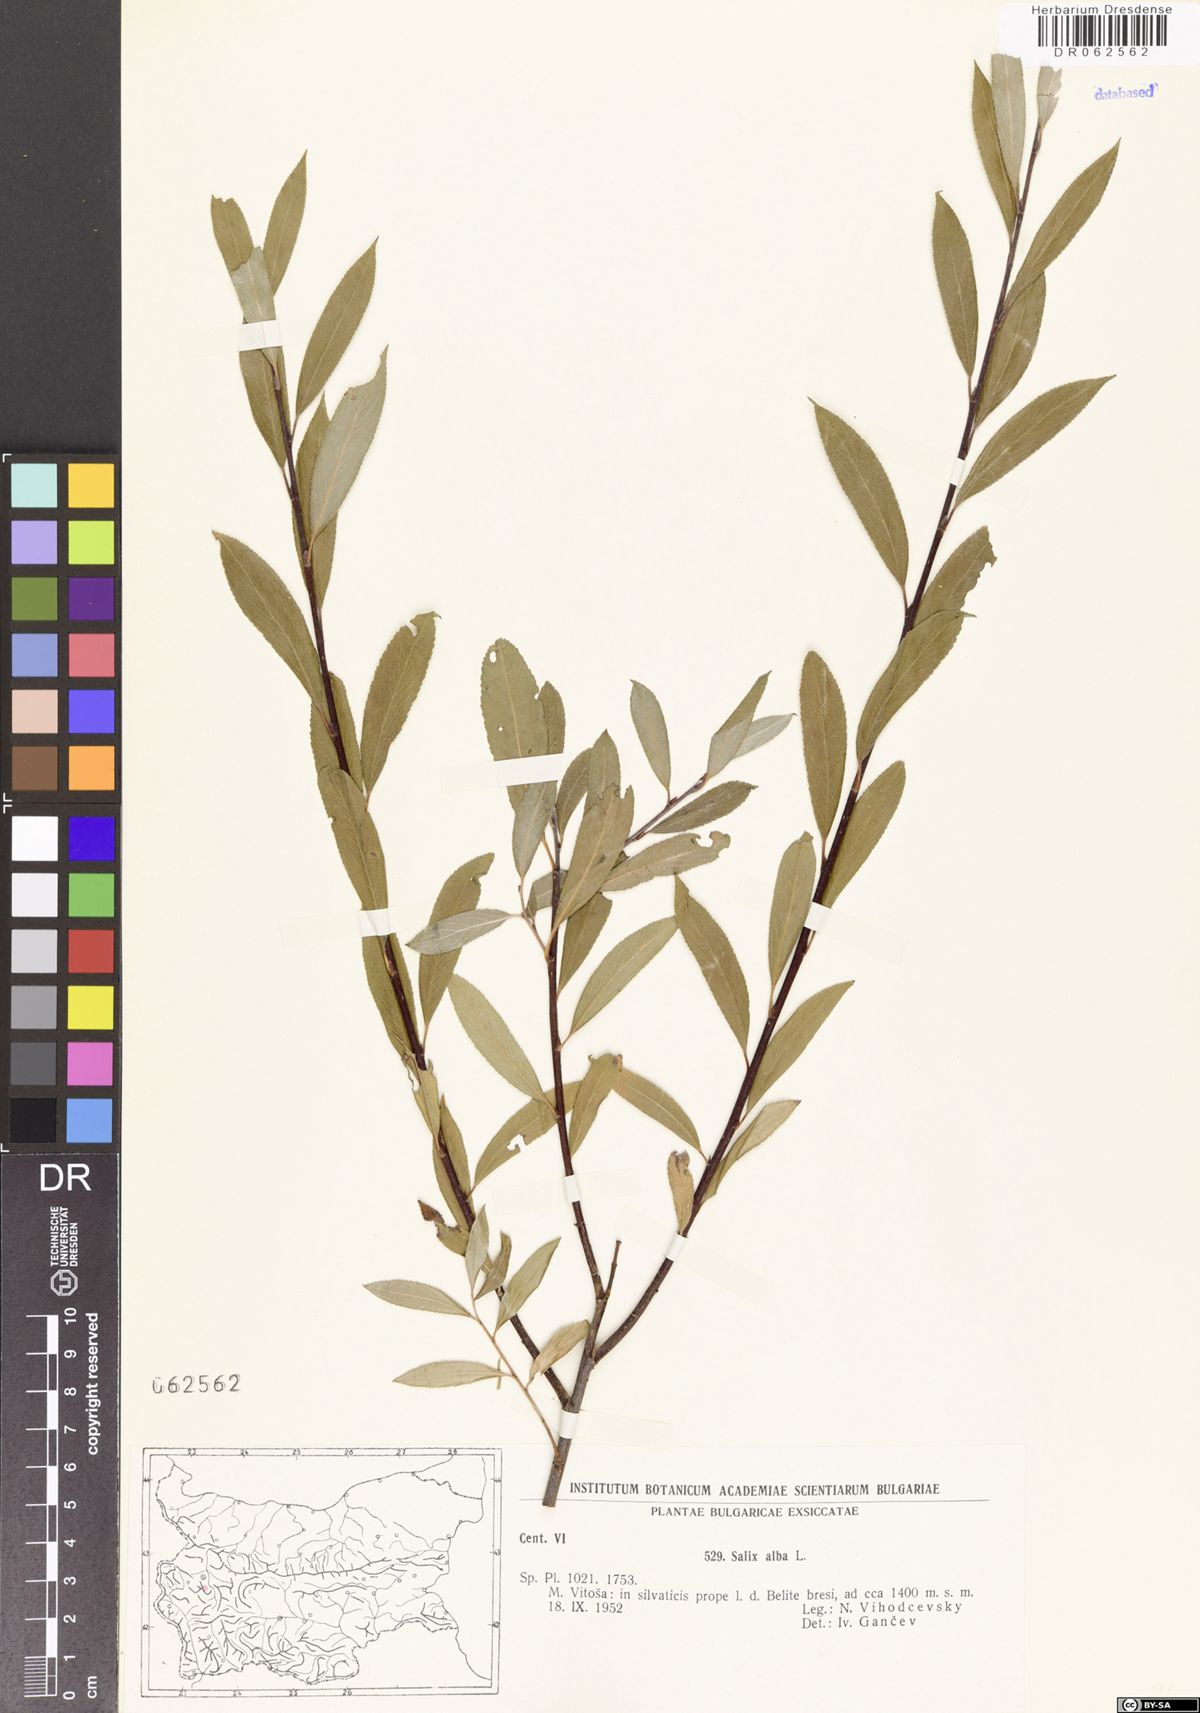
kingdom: Plantae
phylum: Tracheophyta
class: Magnoliopsida
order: Malpighiales
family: Salicaceae
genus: Salix
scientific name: Salix alba
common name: White willow
